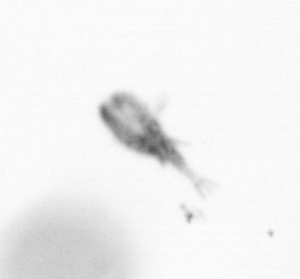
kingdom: Animalia
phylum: Arthropoda
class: Copepoda
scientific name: Copepoda
